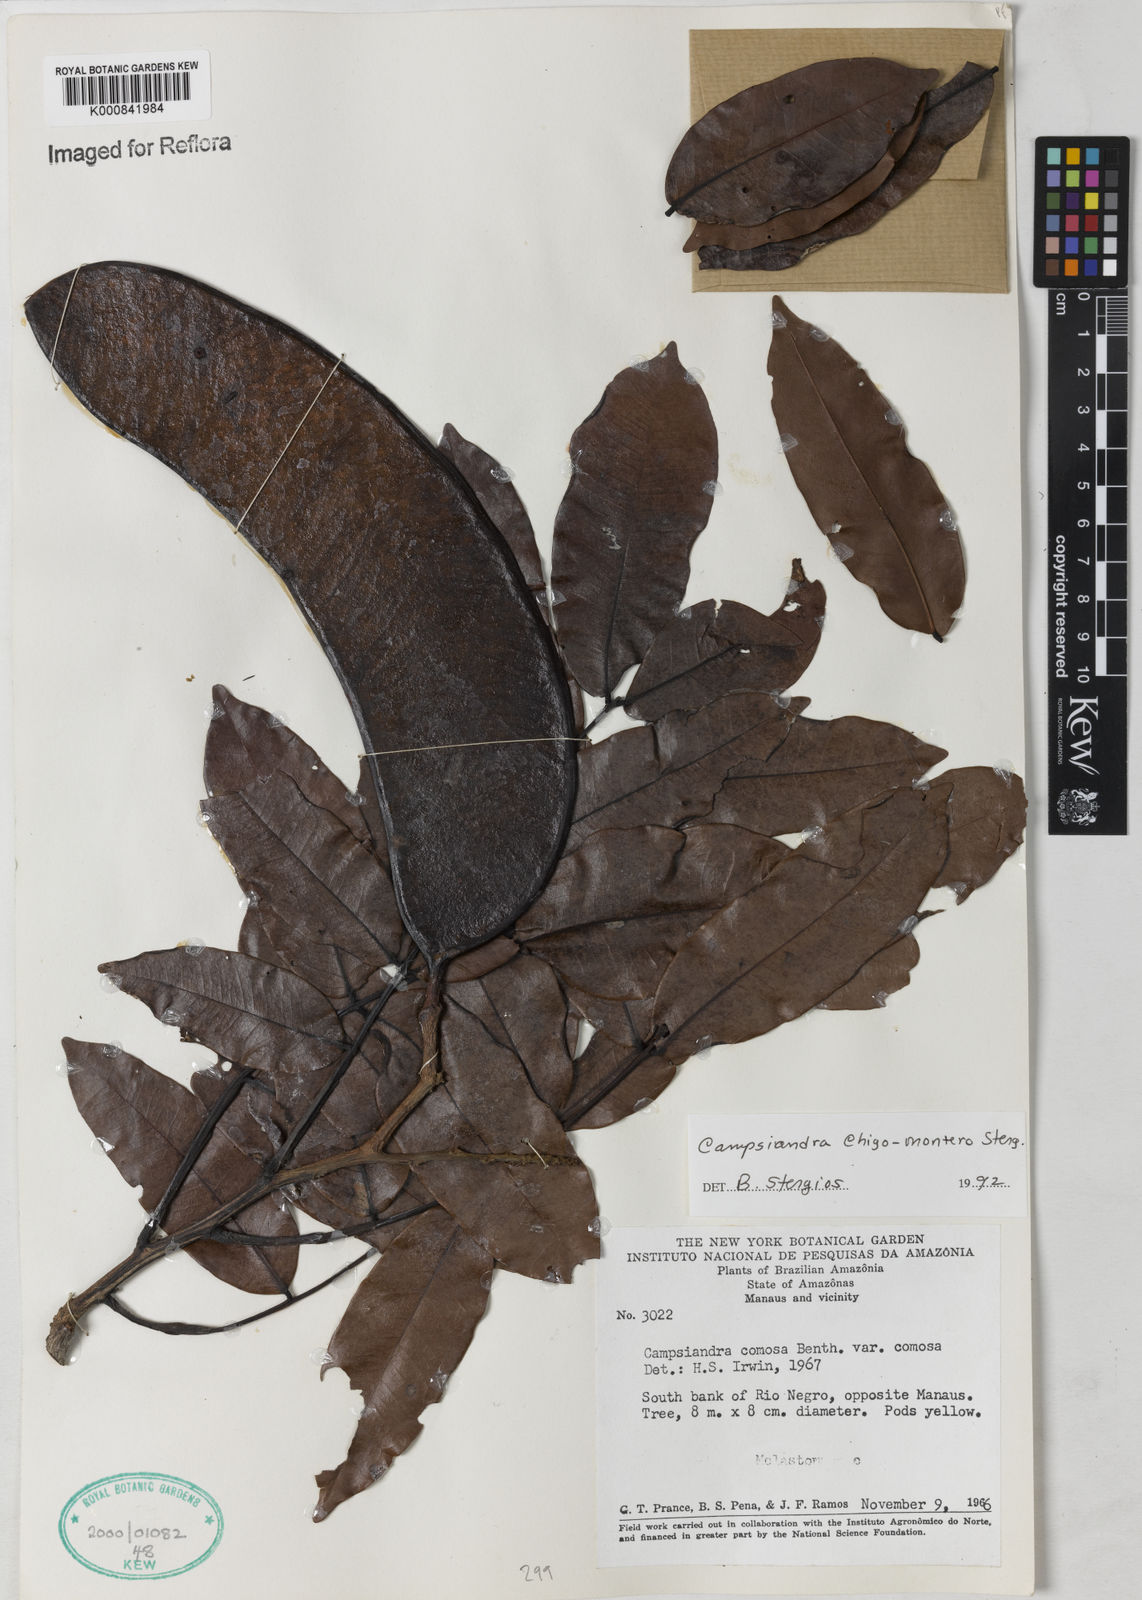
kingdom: Plantae
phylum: Tracheophyta
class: Magnoliopsida
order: Fabales
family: Fabaceae
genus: Campsiandra
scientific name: Campsiandra chigo-montero
